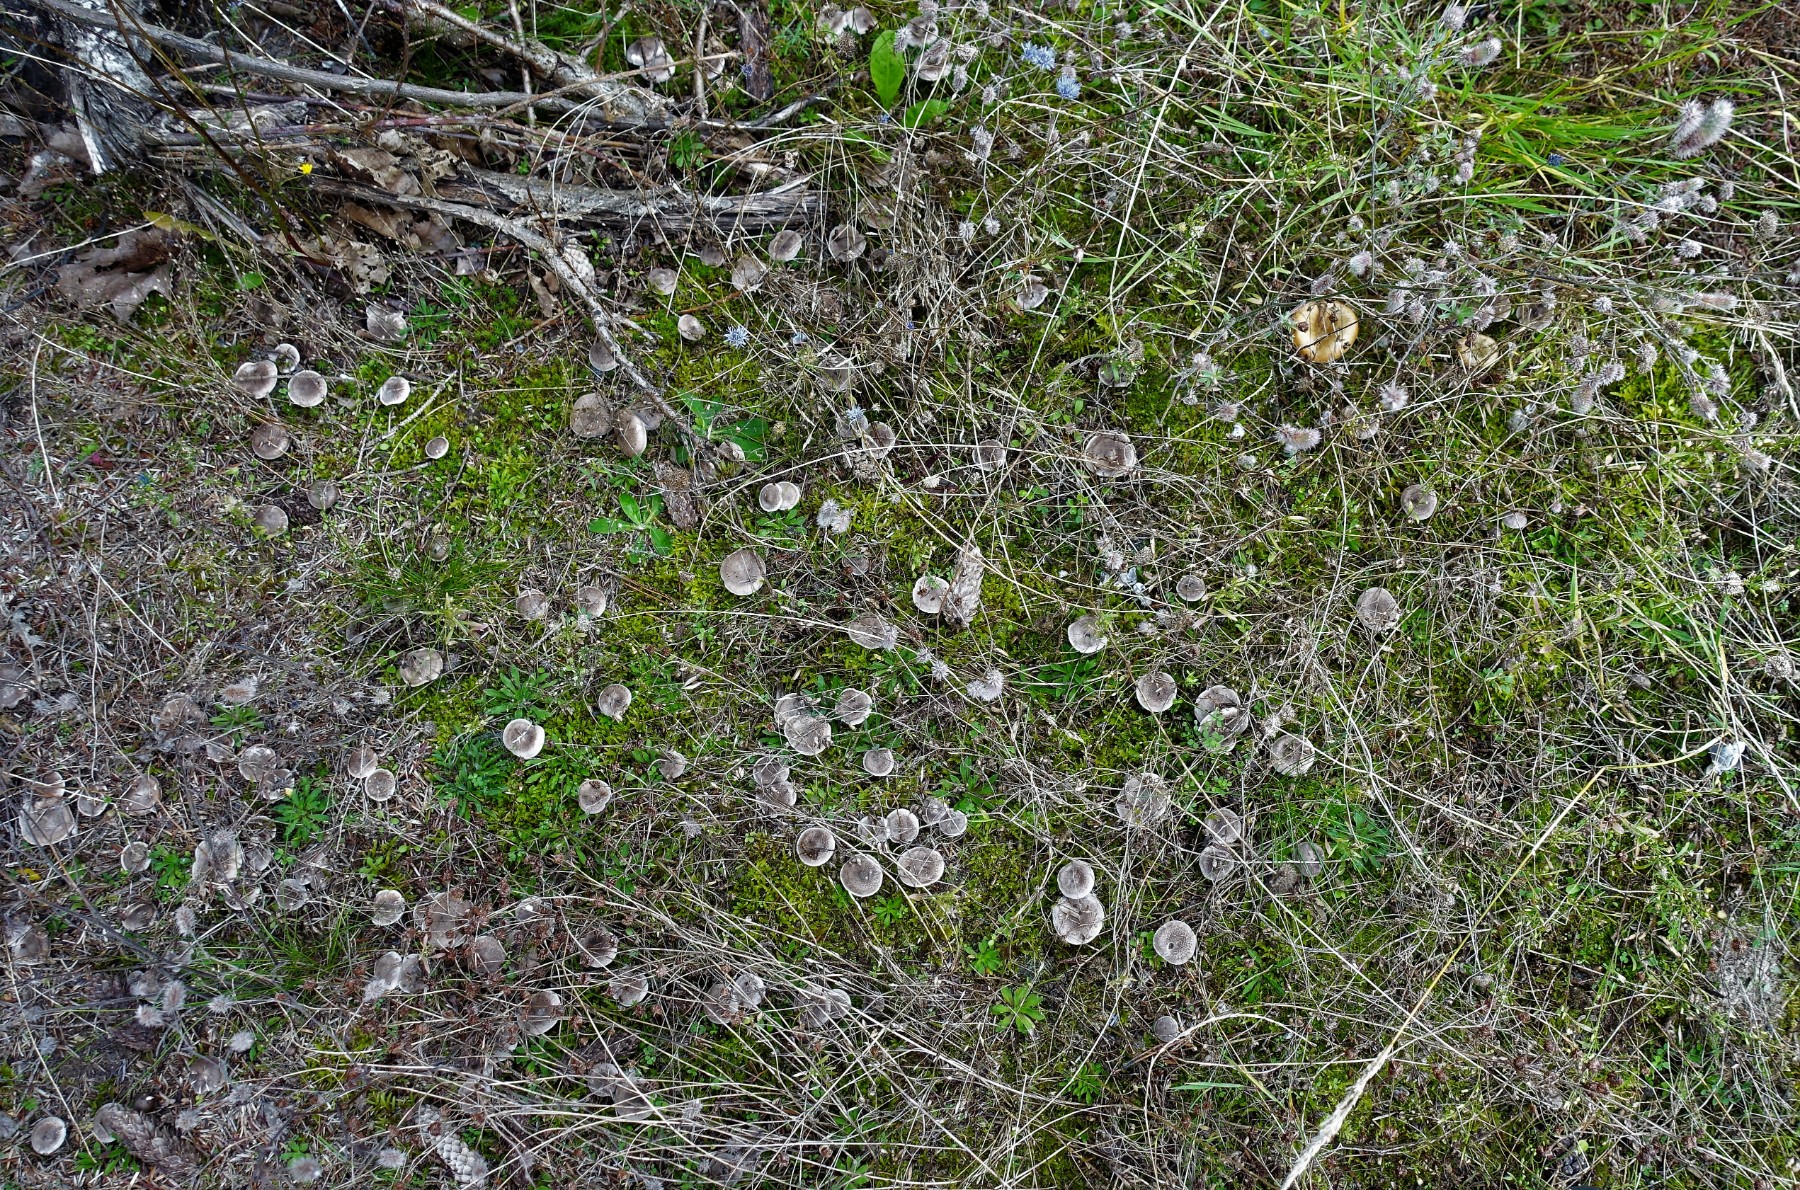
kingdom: Fungi
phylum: Basidiomycota
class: Agaricomycetes
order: Agaricales
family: Tricholomataceae
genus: Tricholoma
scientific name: Tricholoma argyraceum
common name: slør-ridderhat
